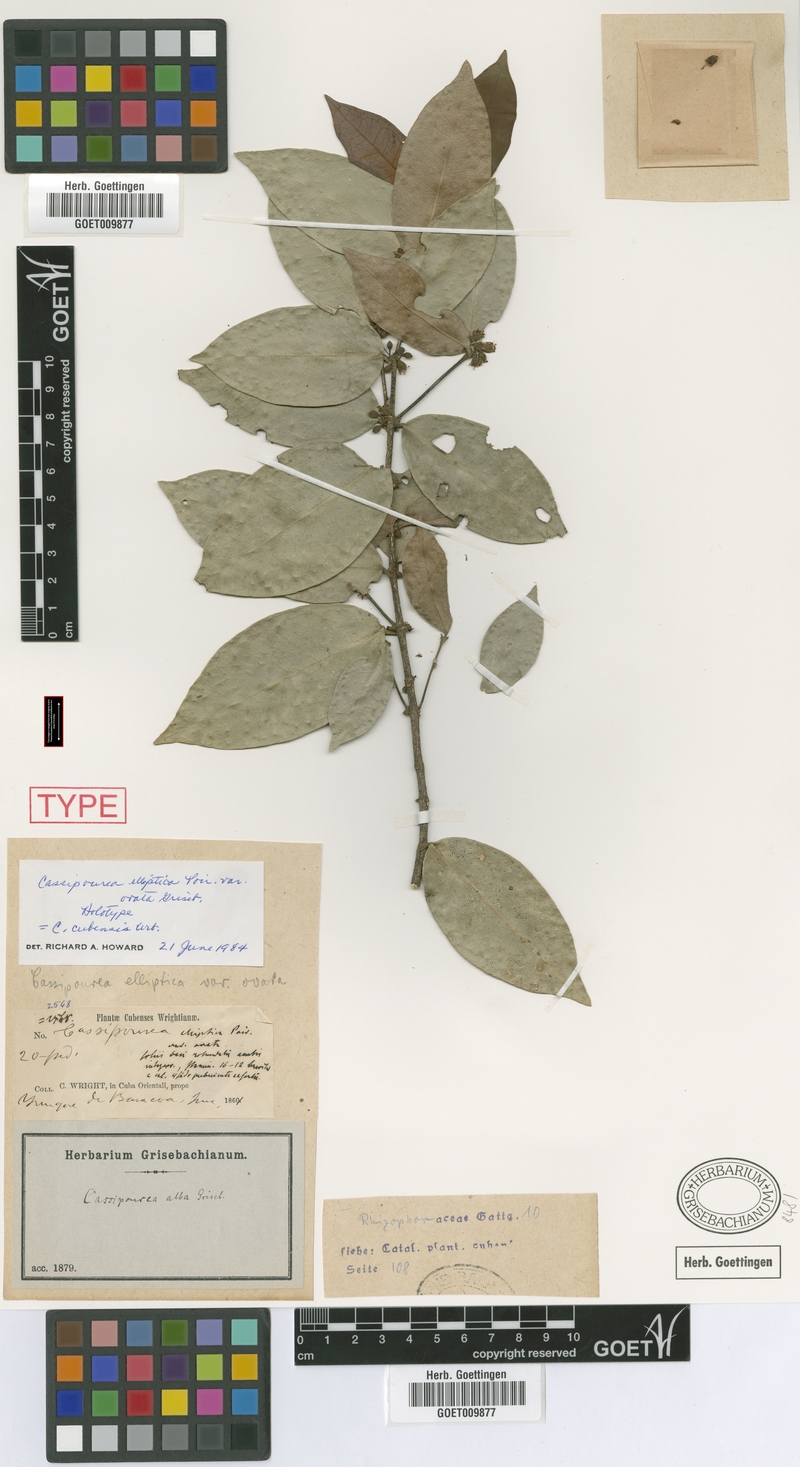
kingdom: Plantae
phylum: Tracheophyta
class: Magnoliopsida
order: Malpighiales
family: Rhizophoraceae
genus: Cassipourea
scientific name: Cassipourea elliptica
